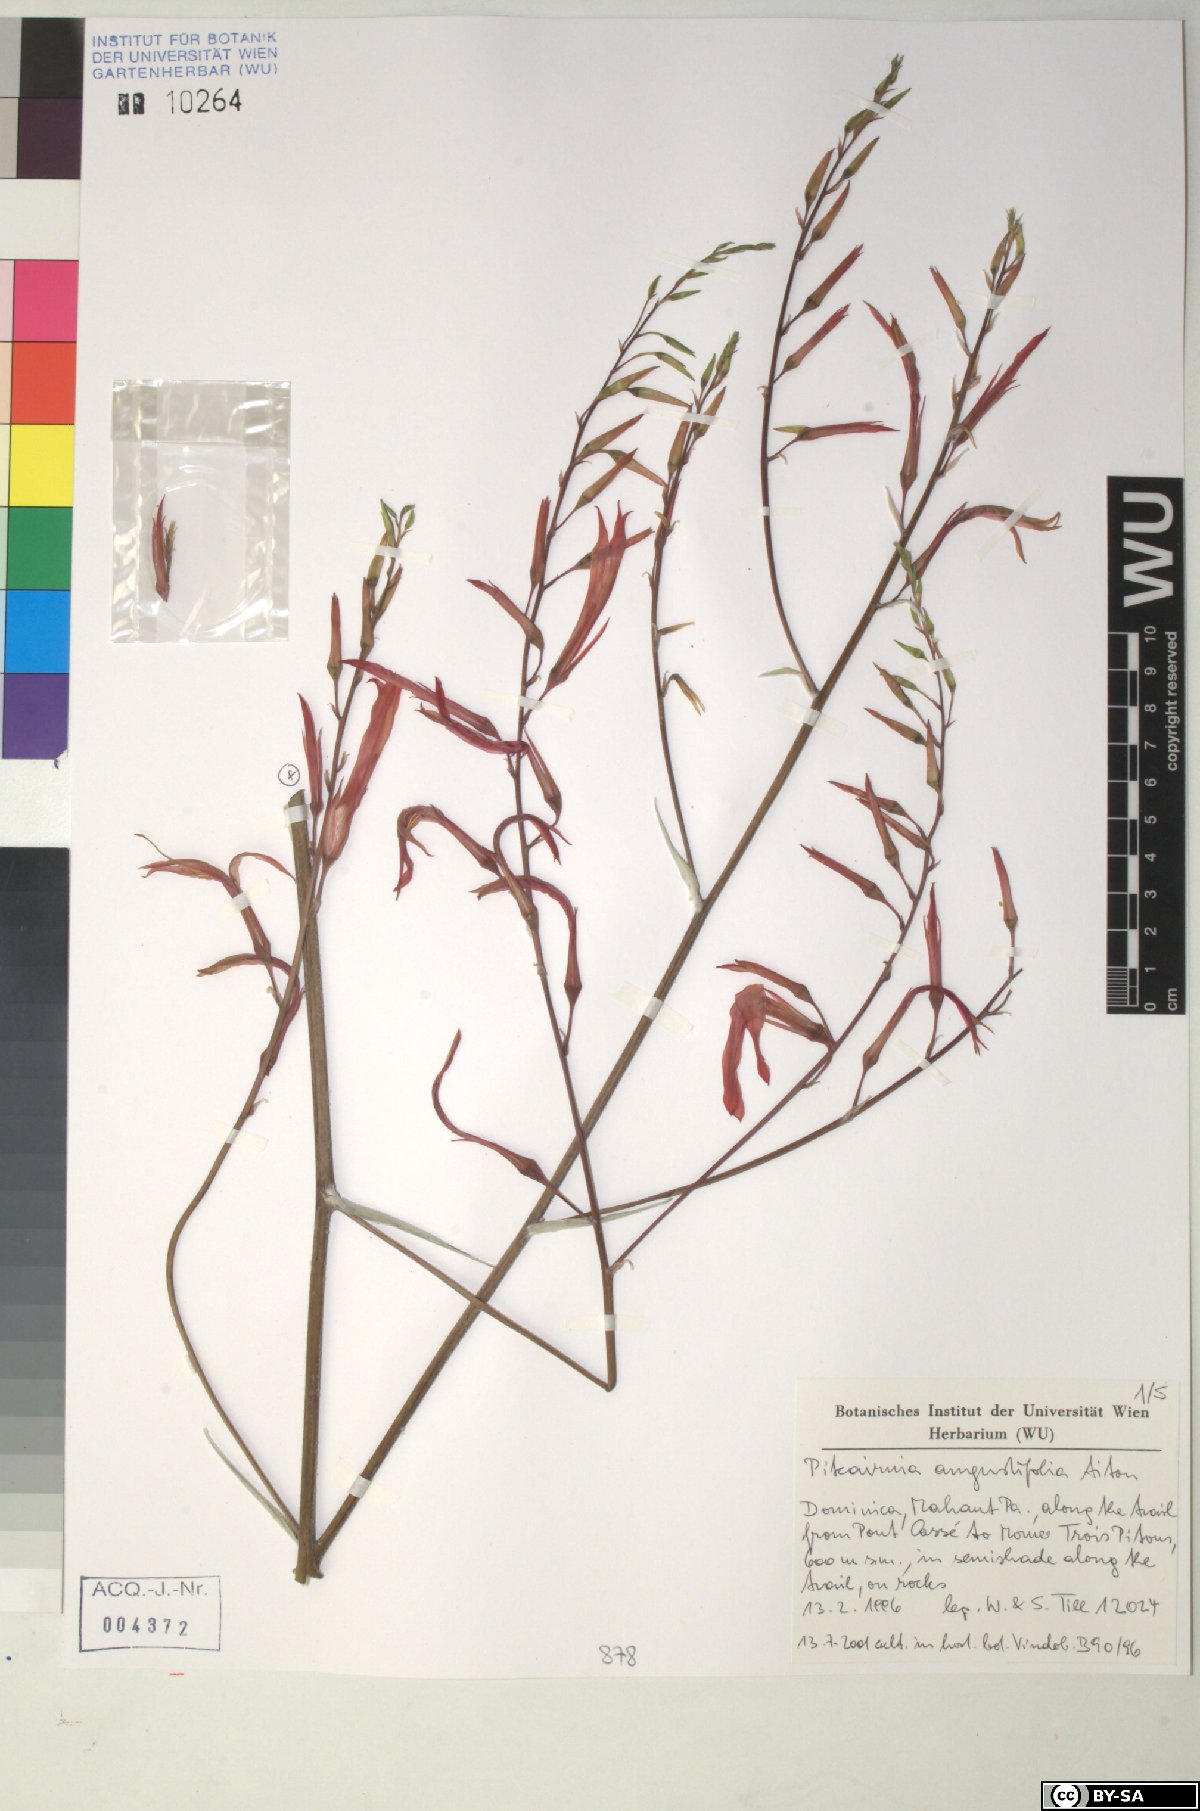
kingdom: Plantae
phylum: Tracheophyta
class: Liliopsida
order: Poales
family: Bromeliaceae
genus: Pitcairnia
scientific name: Pitcairnia angustifolia
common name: Clapper
